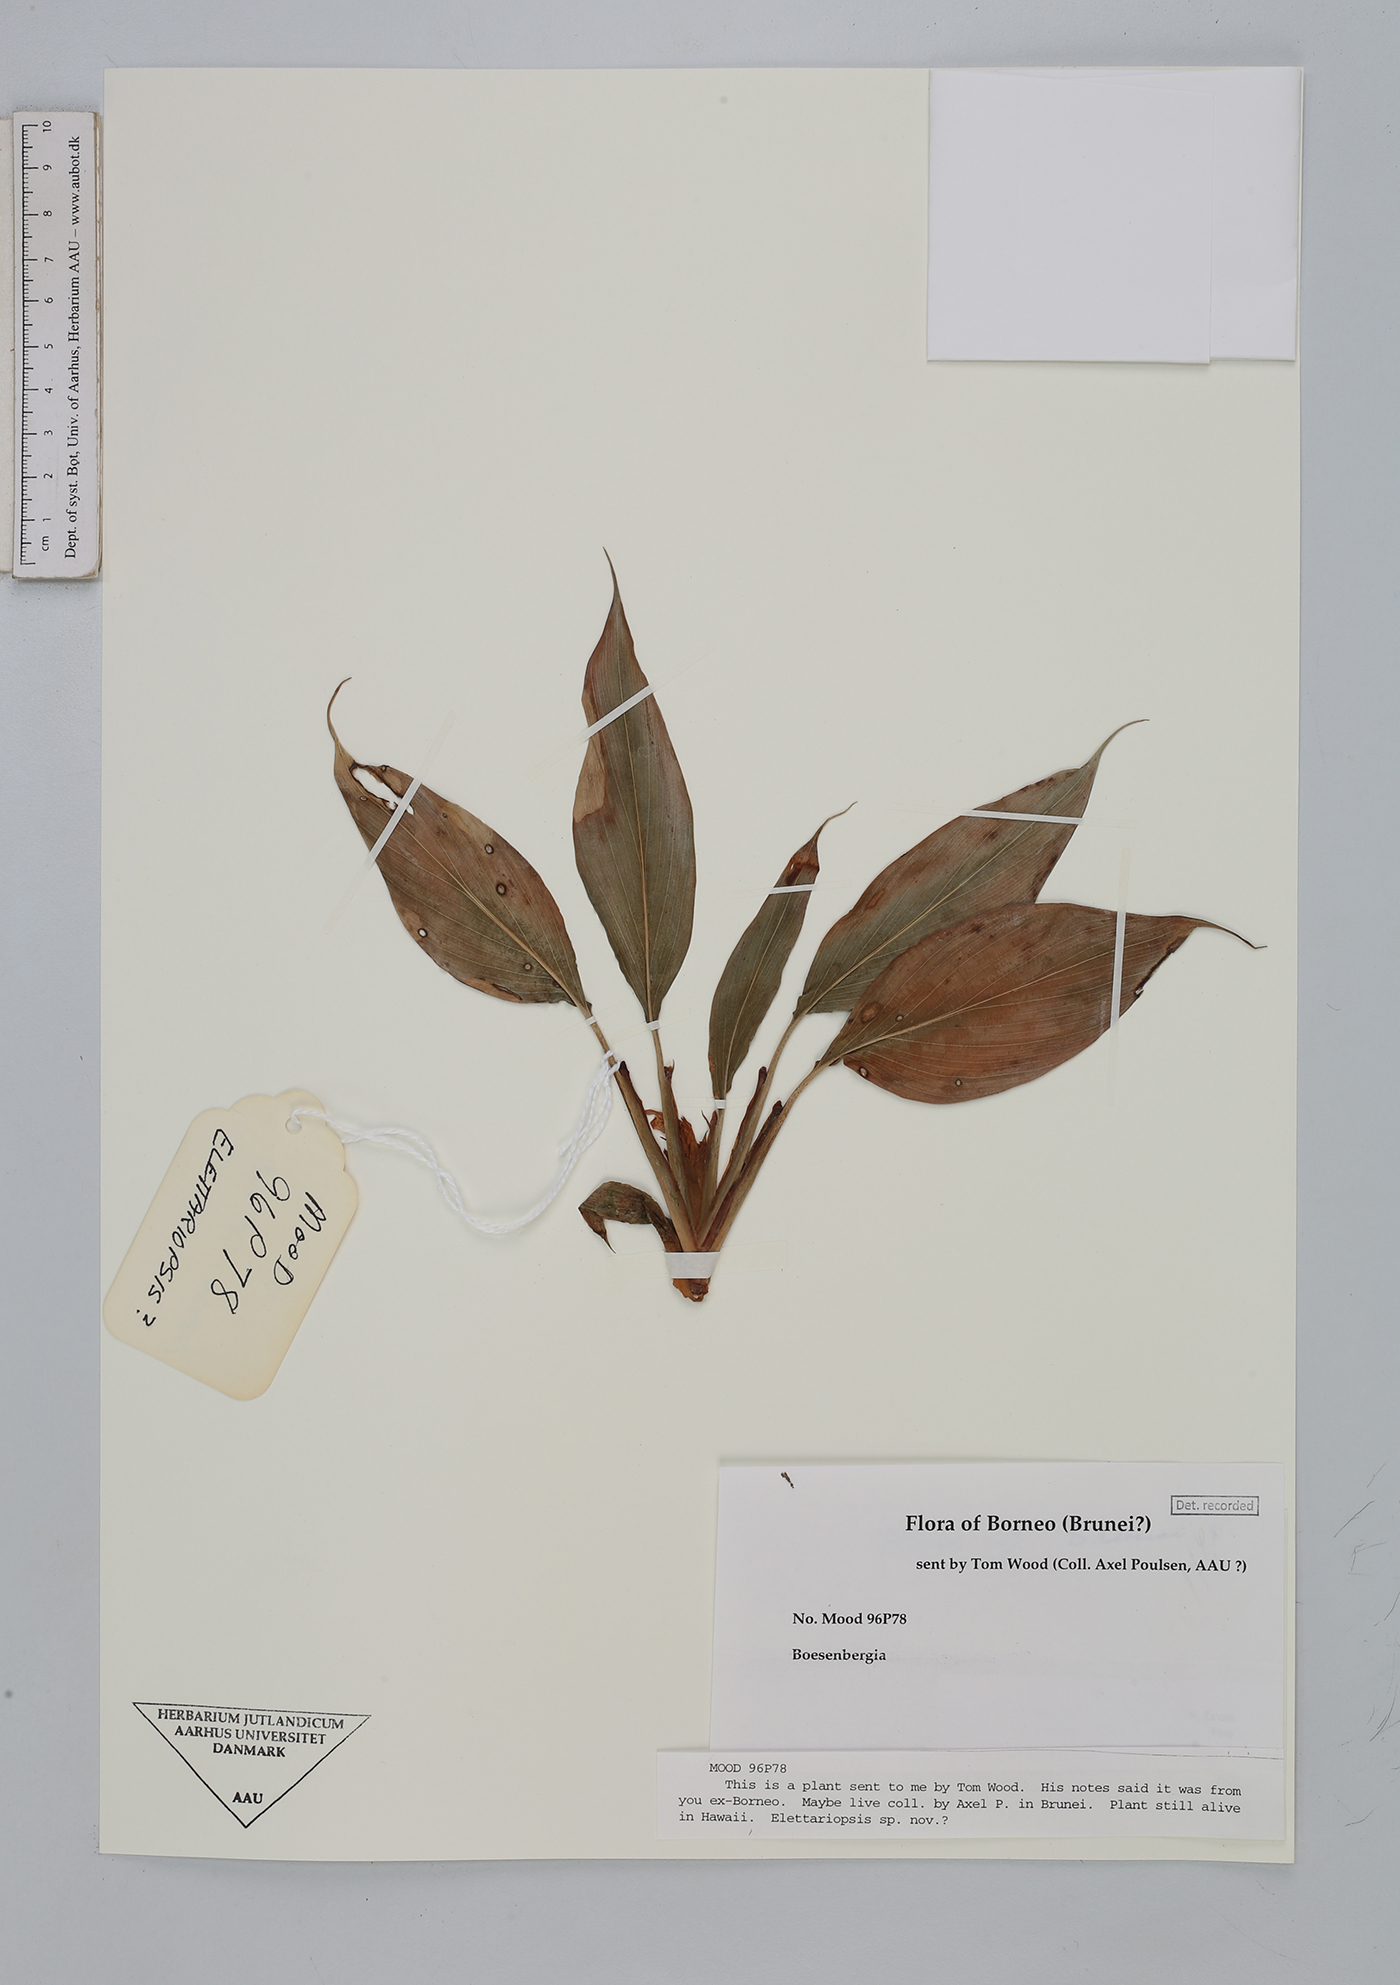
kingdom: Plantae
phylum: Tracheophyta
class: Liliopsida
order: Zingiberales
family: Zingiberaceae
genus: Boesenbergia
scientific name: Boesenbergia
